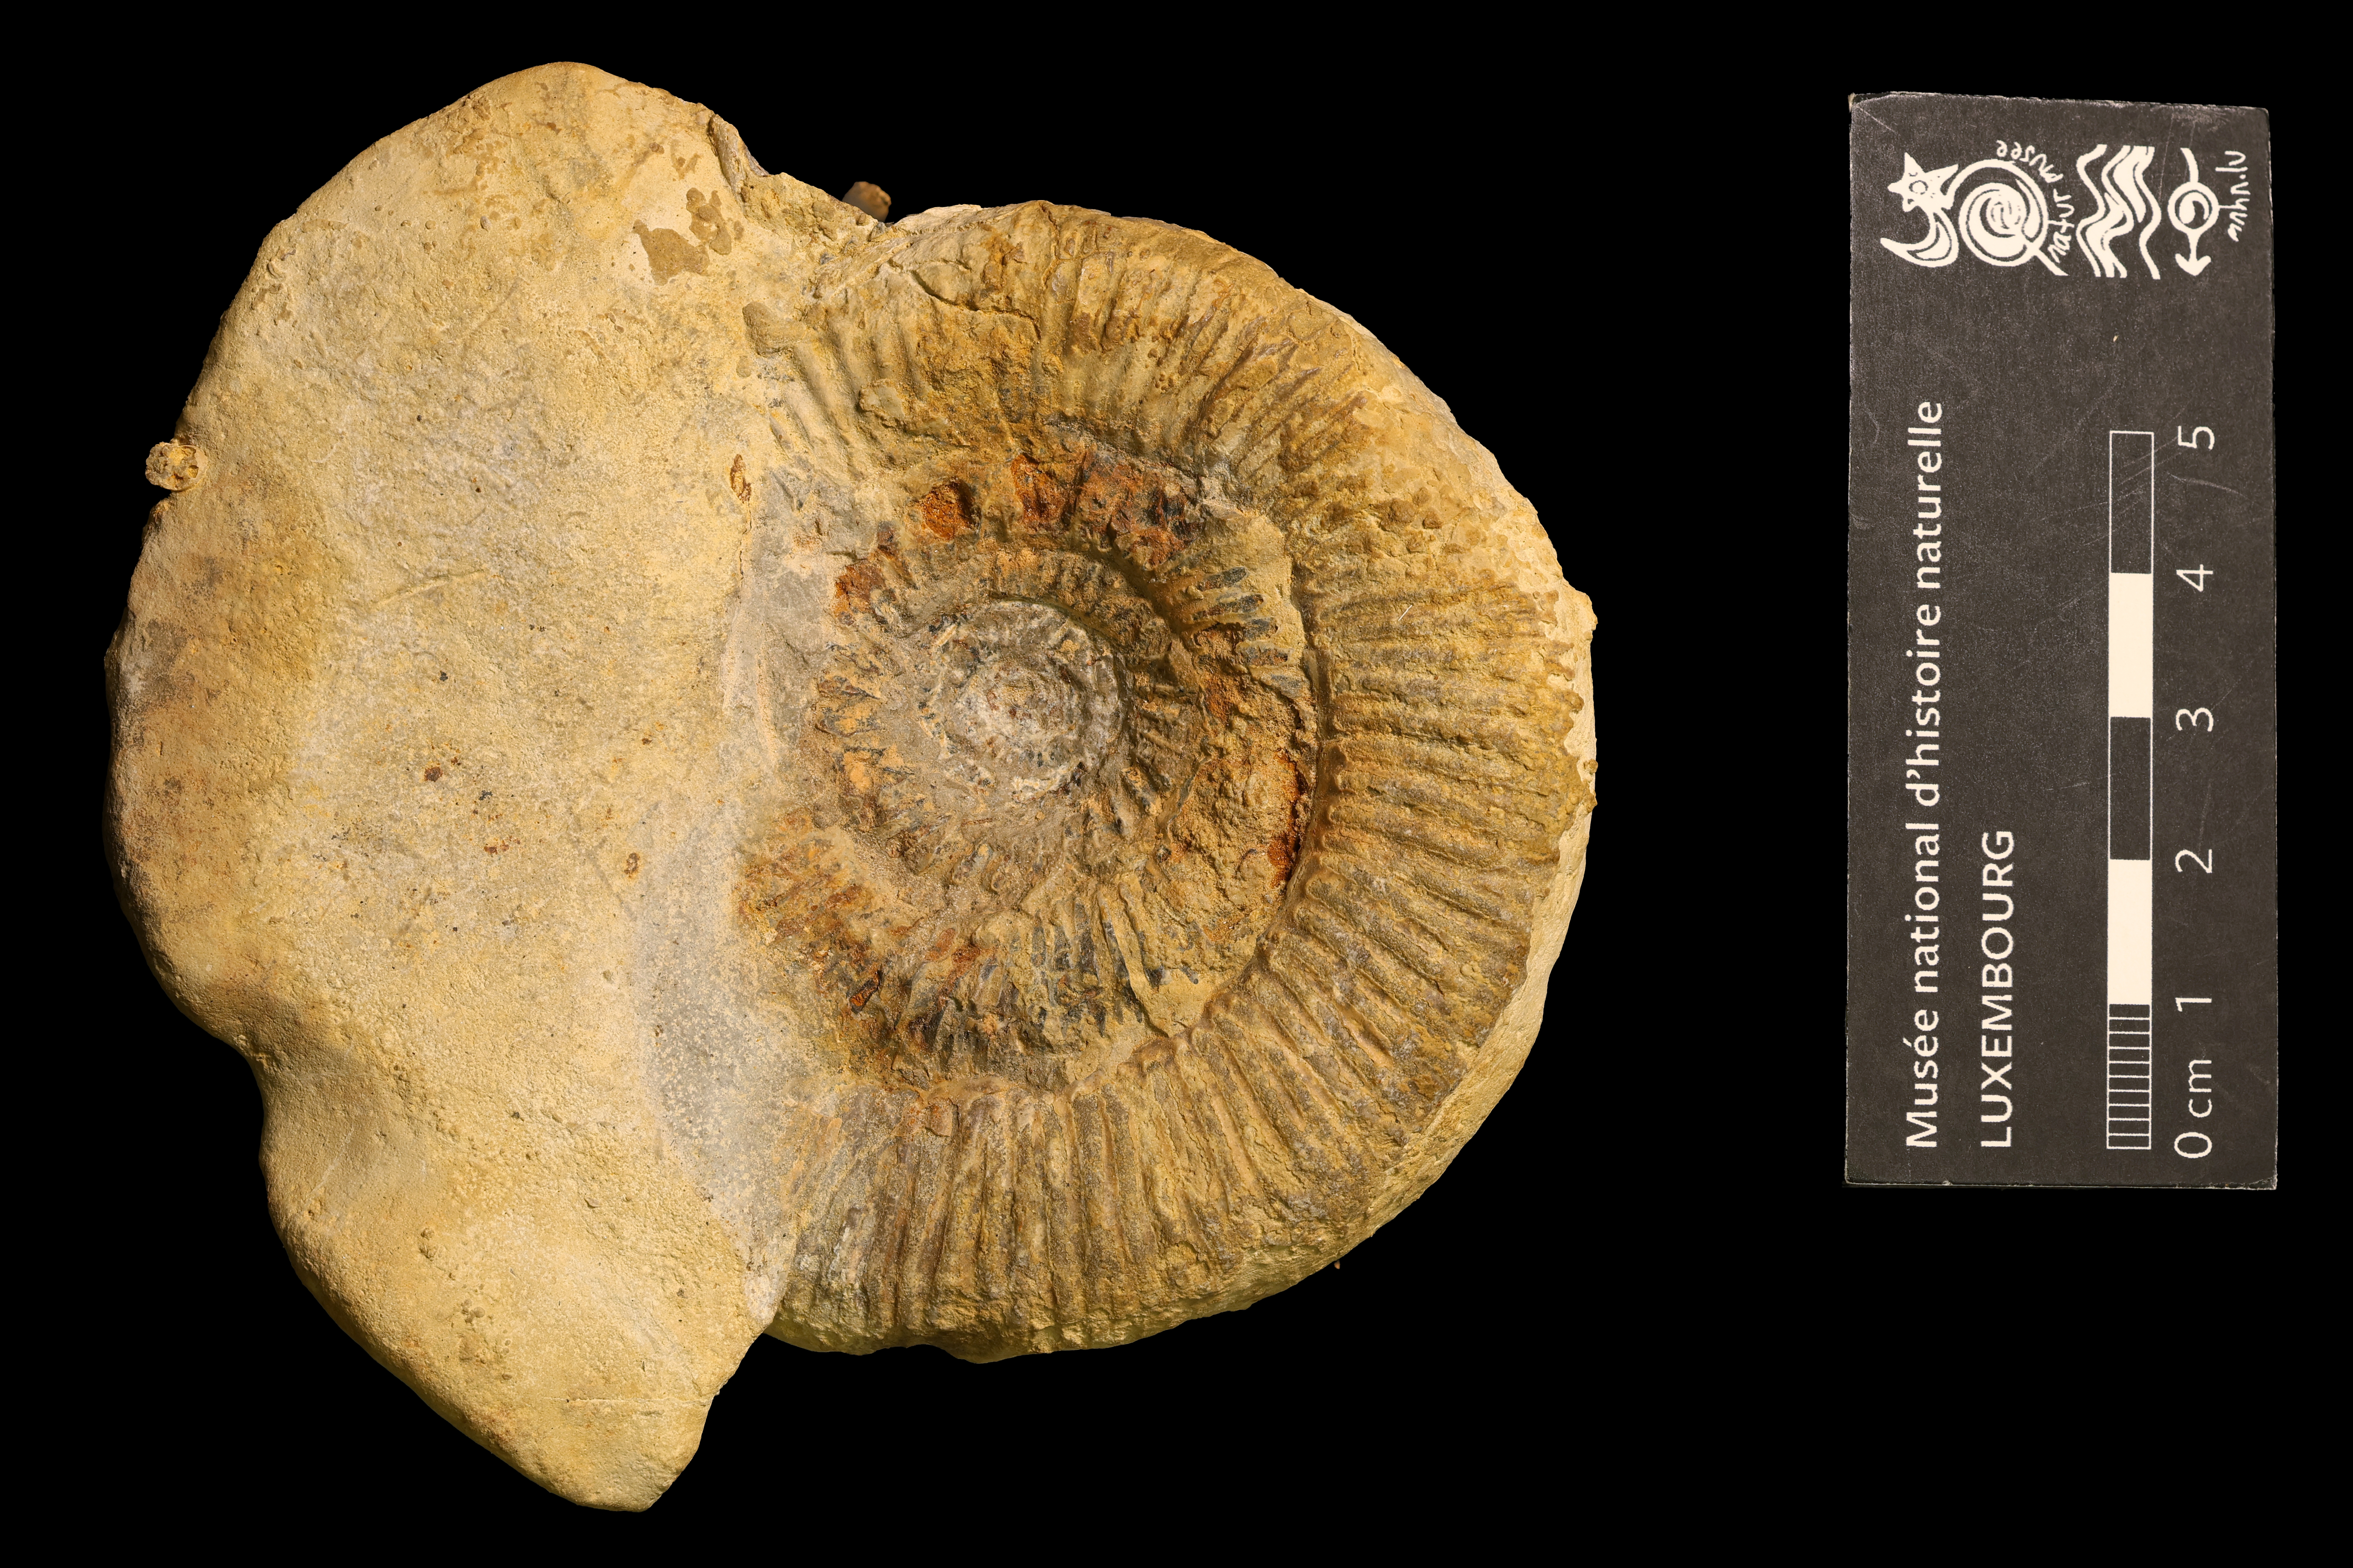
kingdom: Animalia
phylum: Mollusca
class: Cephalopoda
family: Dactylioceratidae
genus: Dactylioceras
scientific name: Dactylioceras
